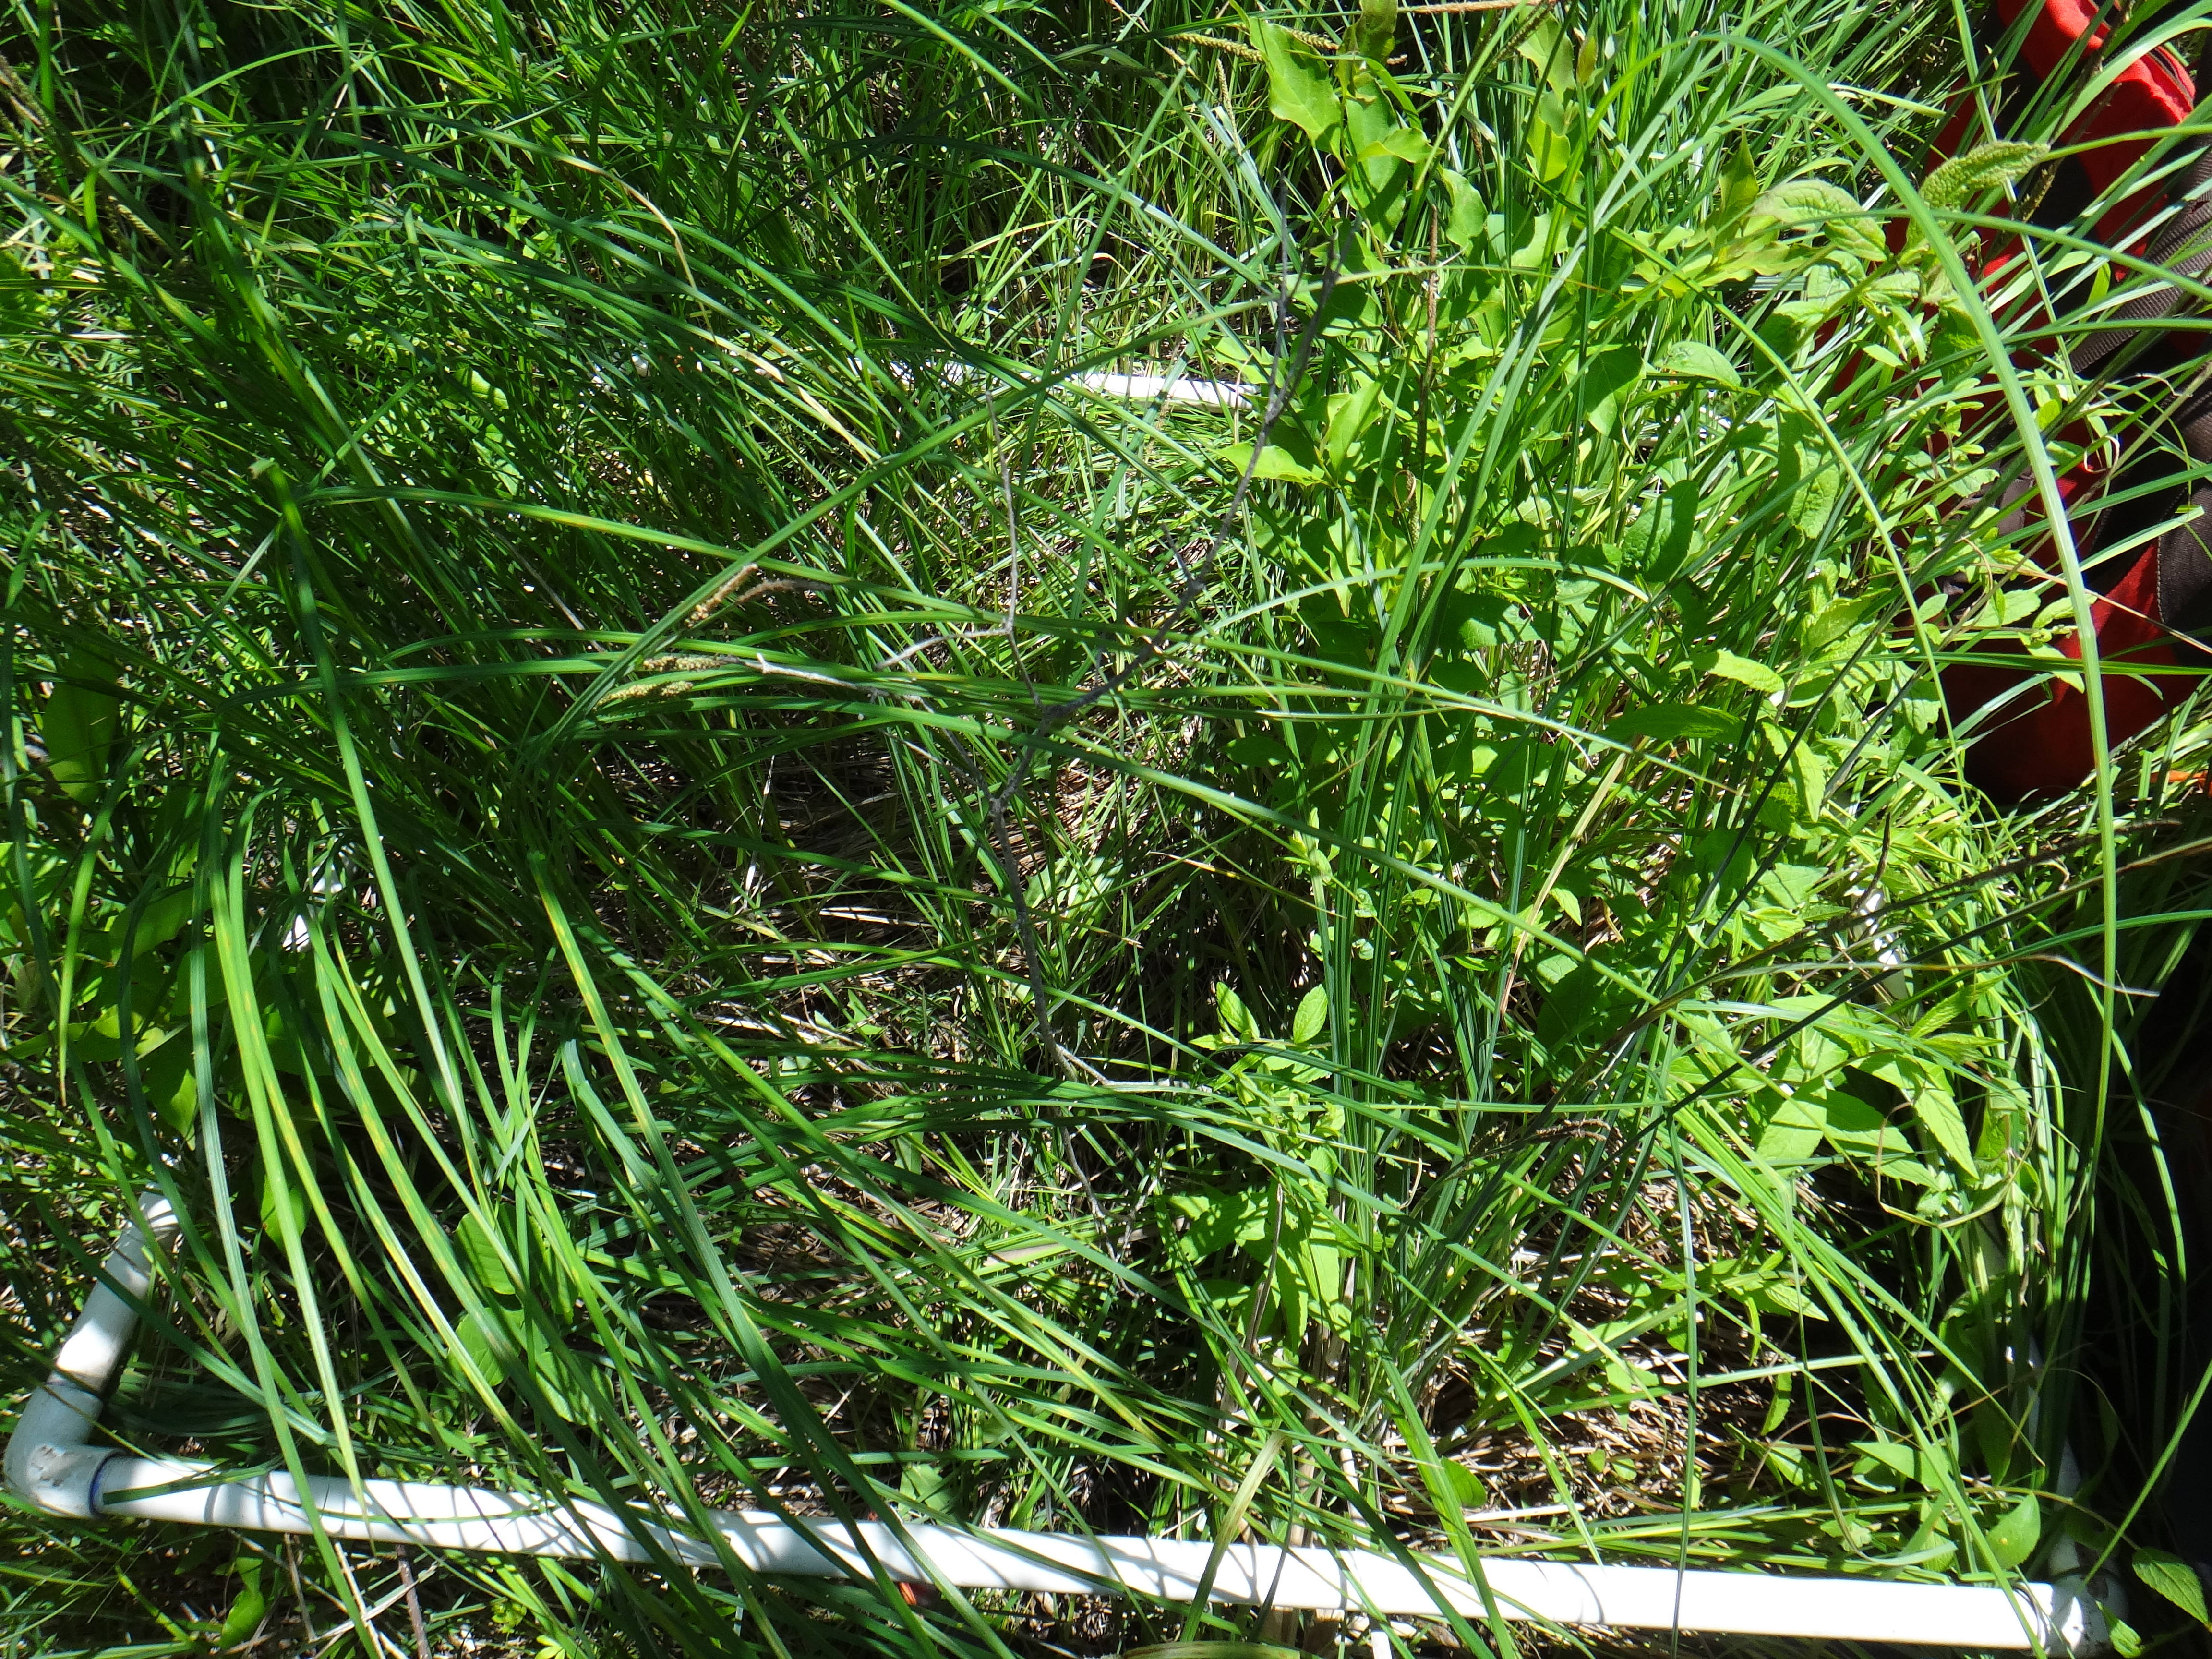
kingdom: Plantae
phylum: Tracheophyta
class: Magnoliopsida
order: Cornales
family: Cornaceae
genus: Cornus
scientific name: Cornus amomum
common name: Silky dogwood
